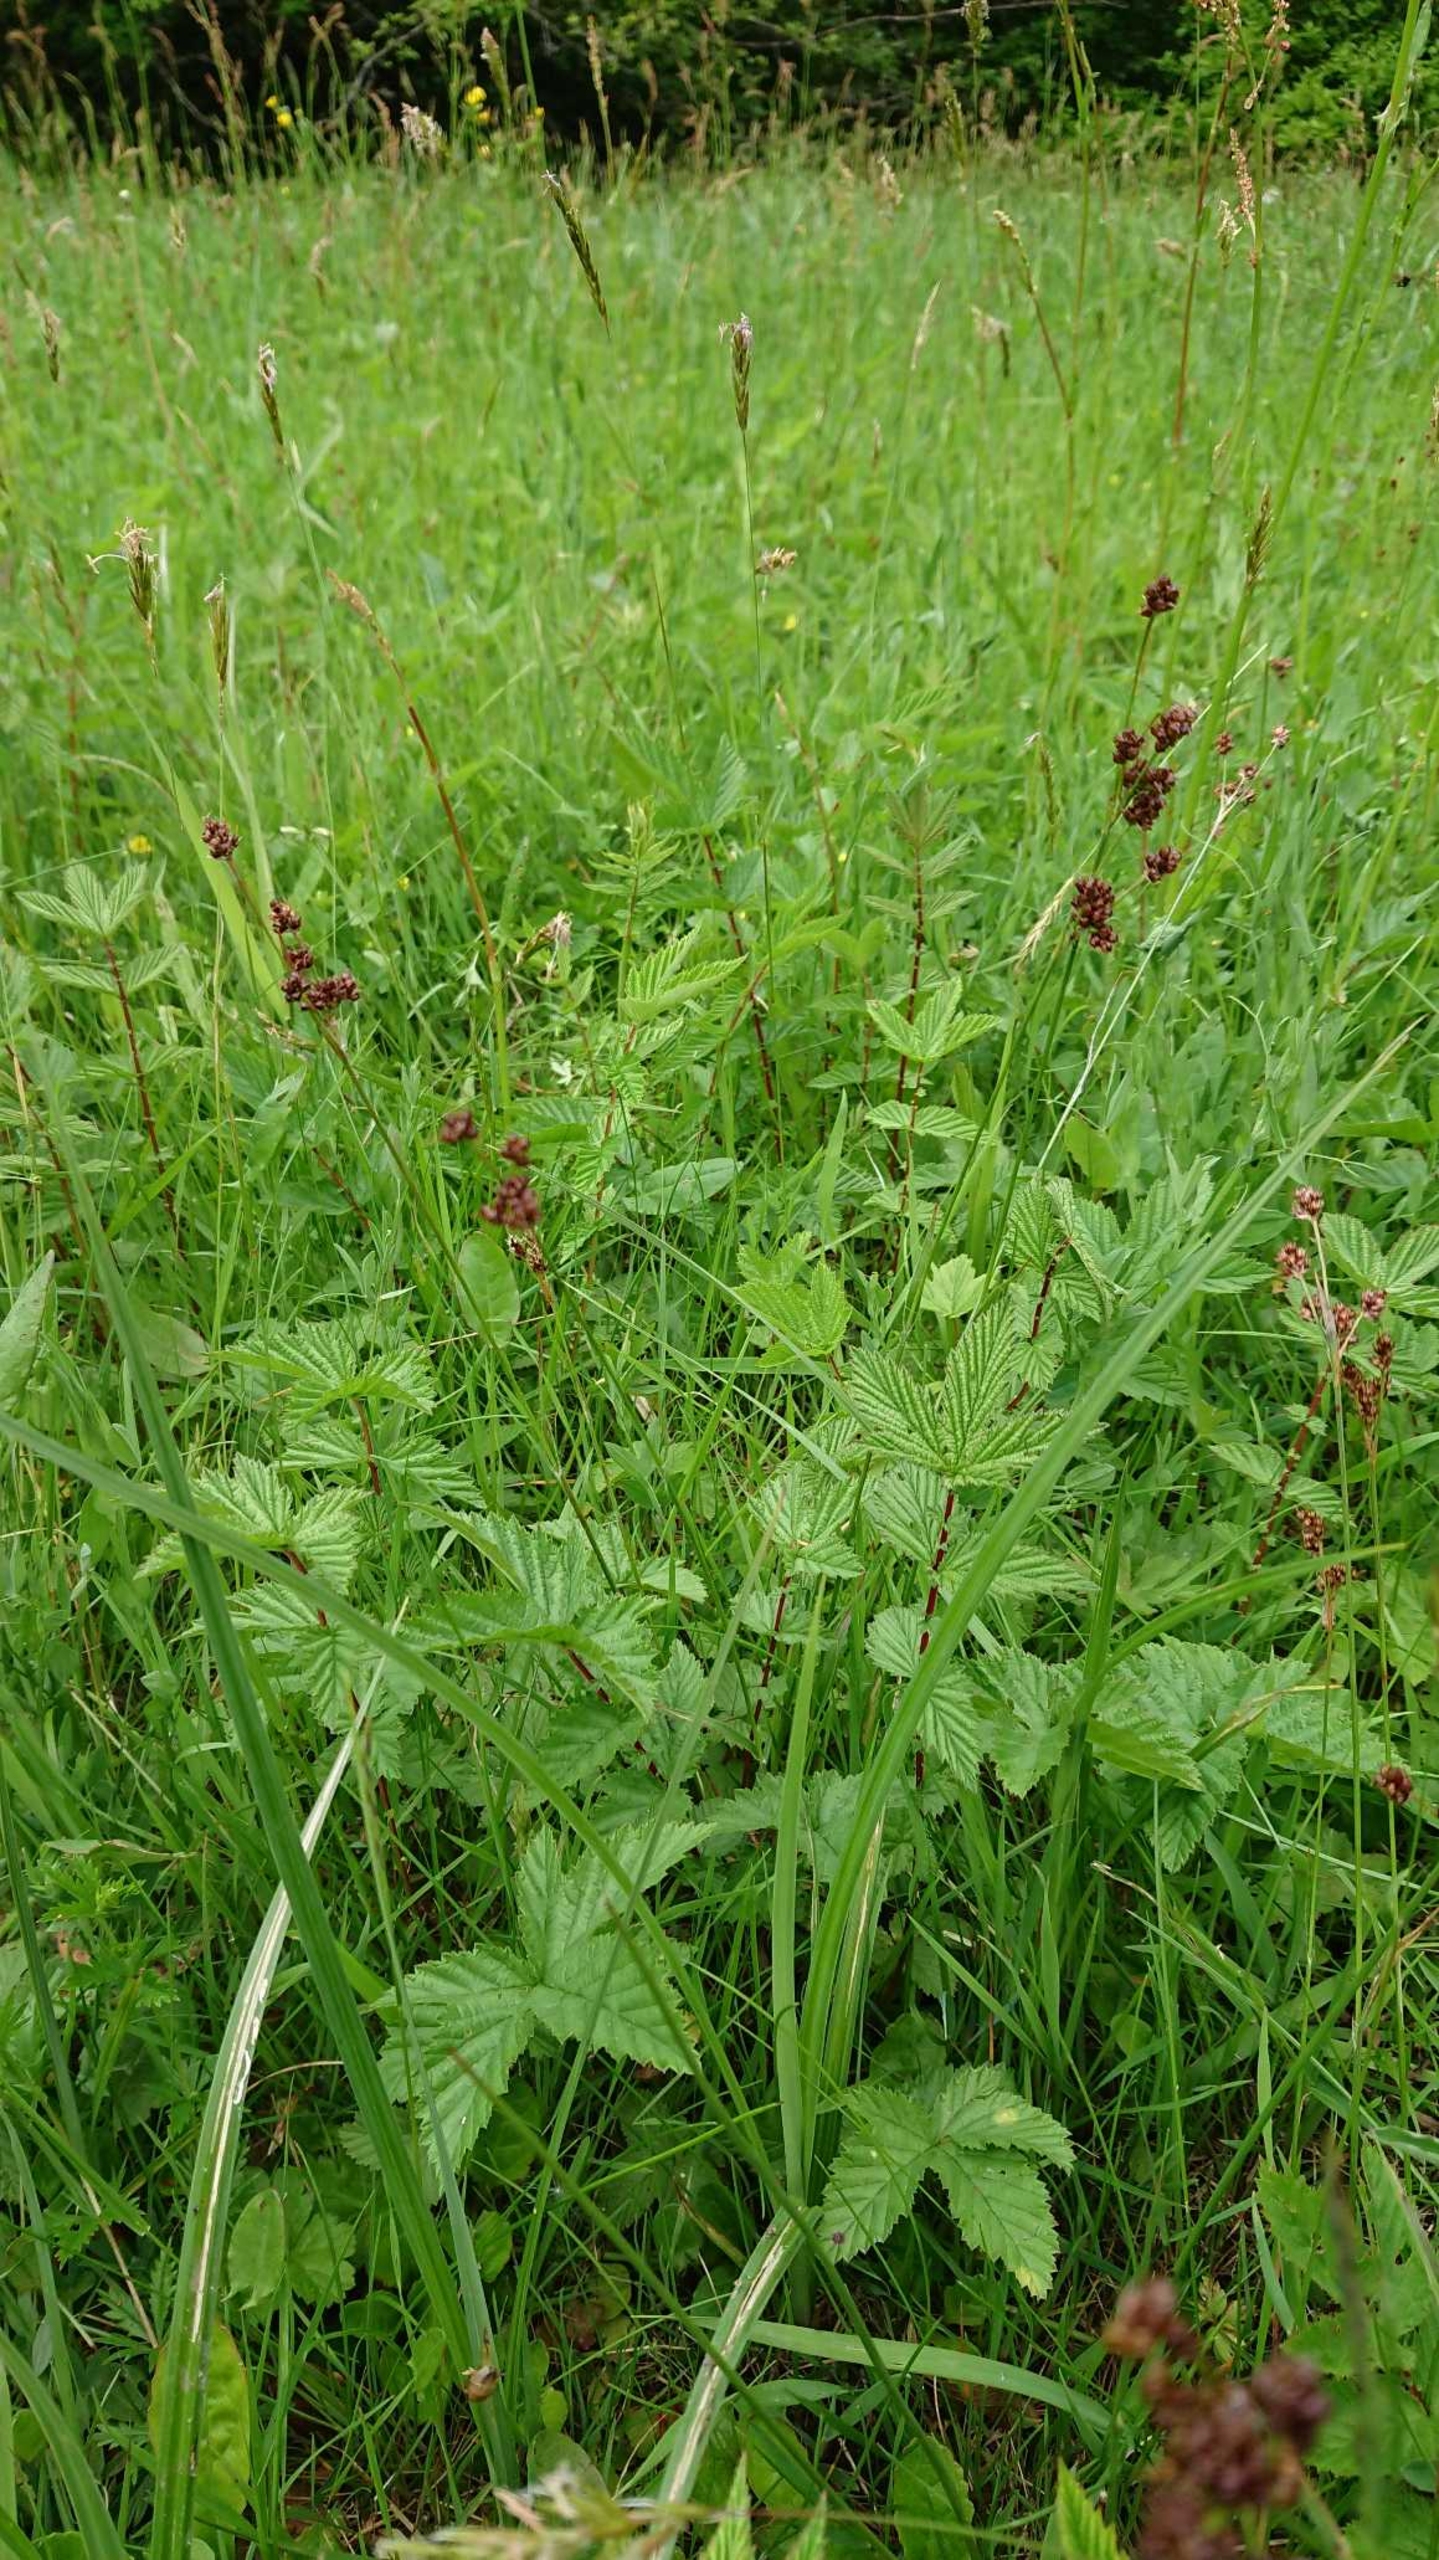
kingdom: Plantae
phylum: Tracheophyta
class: Liliopsida
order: Poales
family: Juncaceae
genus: Luzula
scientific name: Luzula multiflora
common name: Mangeblomstret frytle
